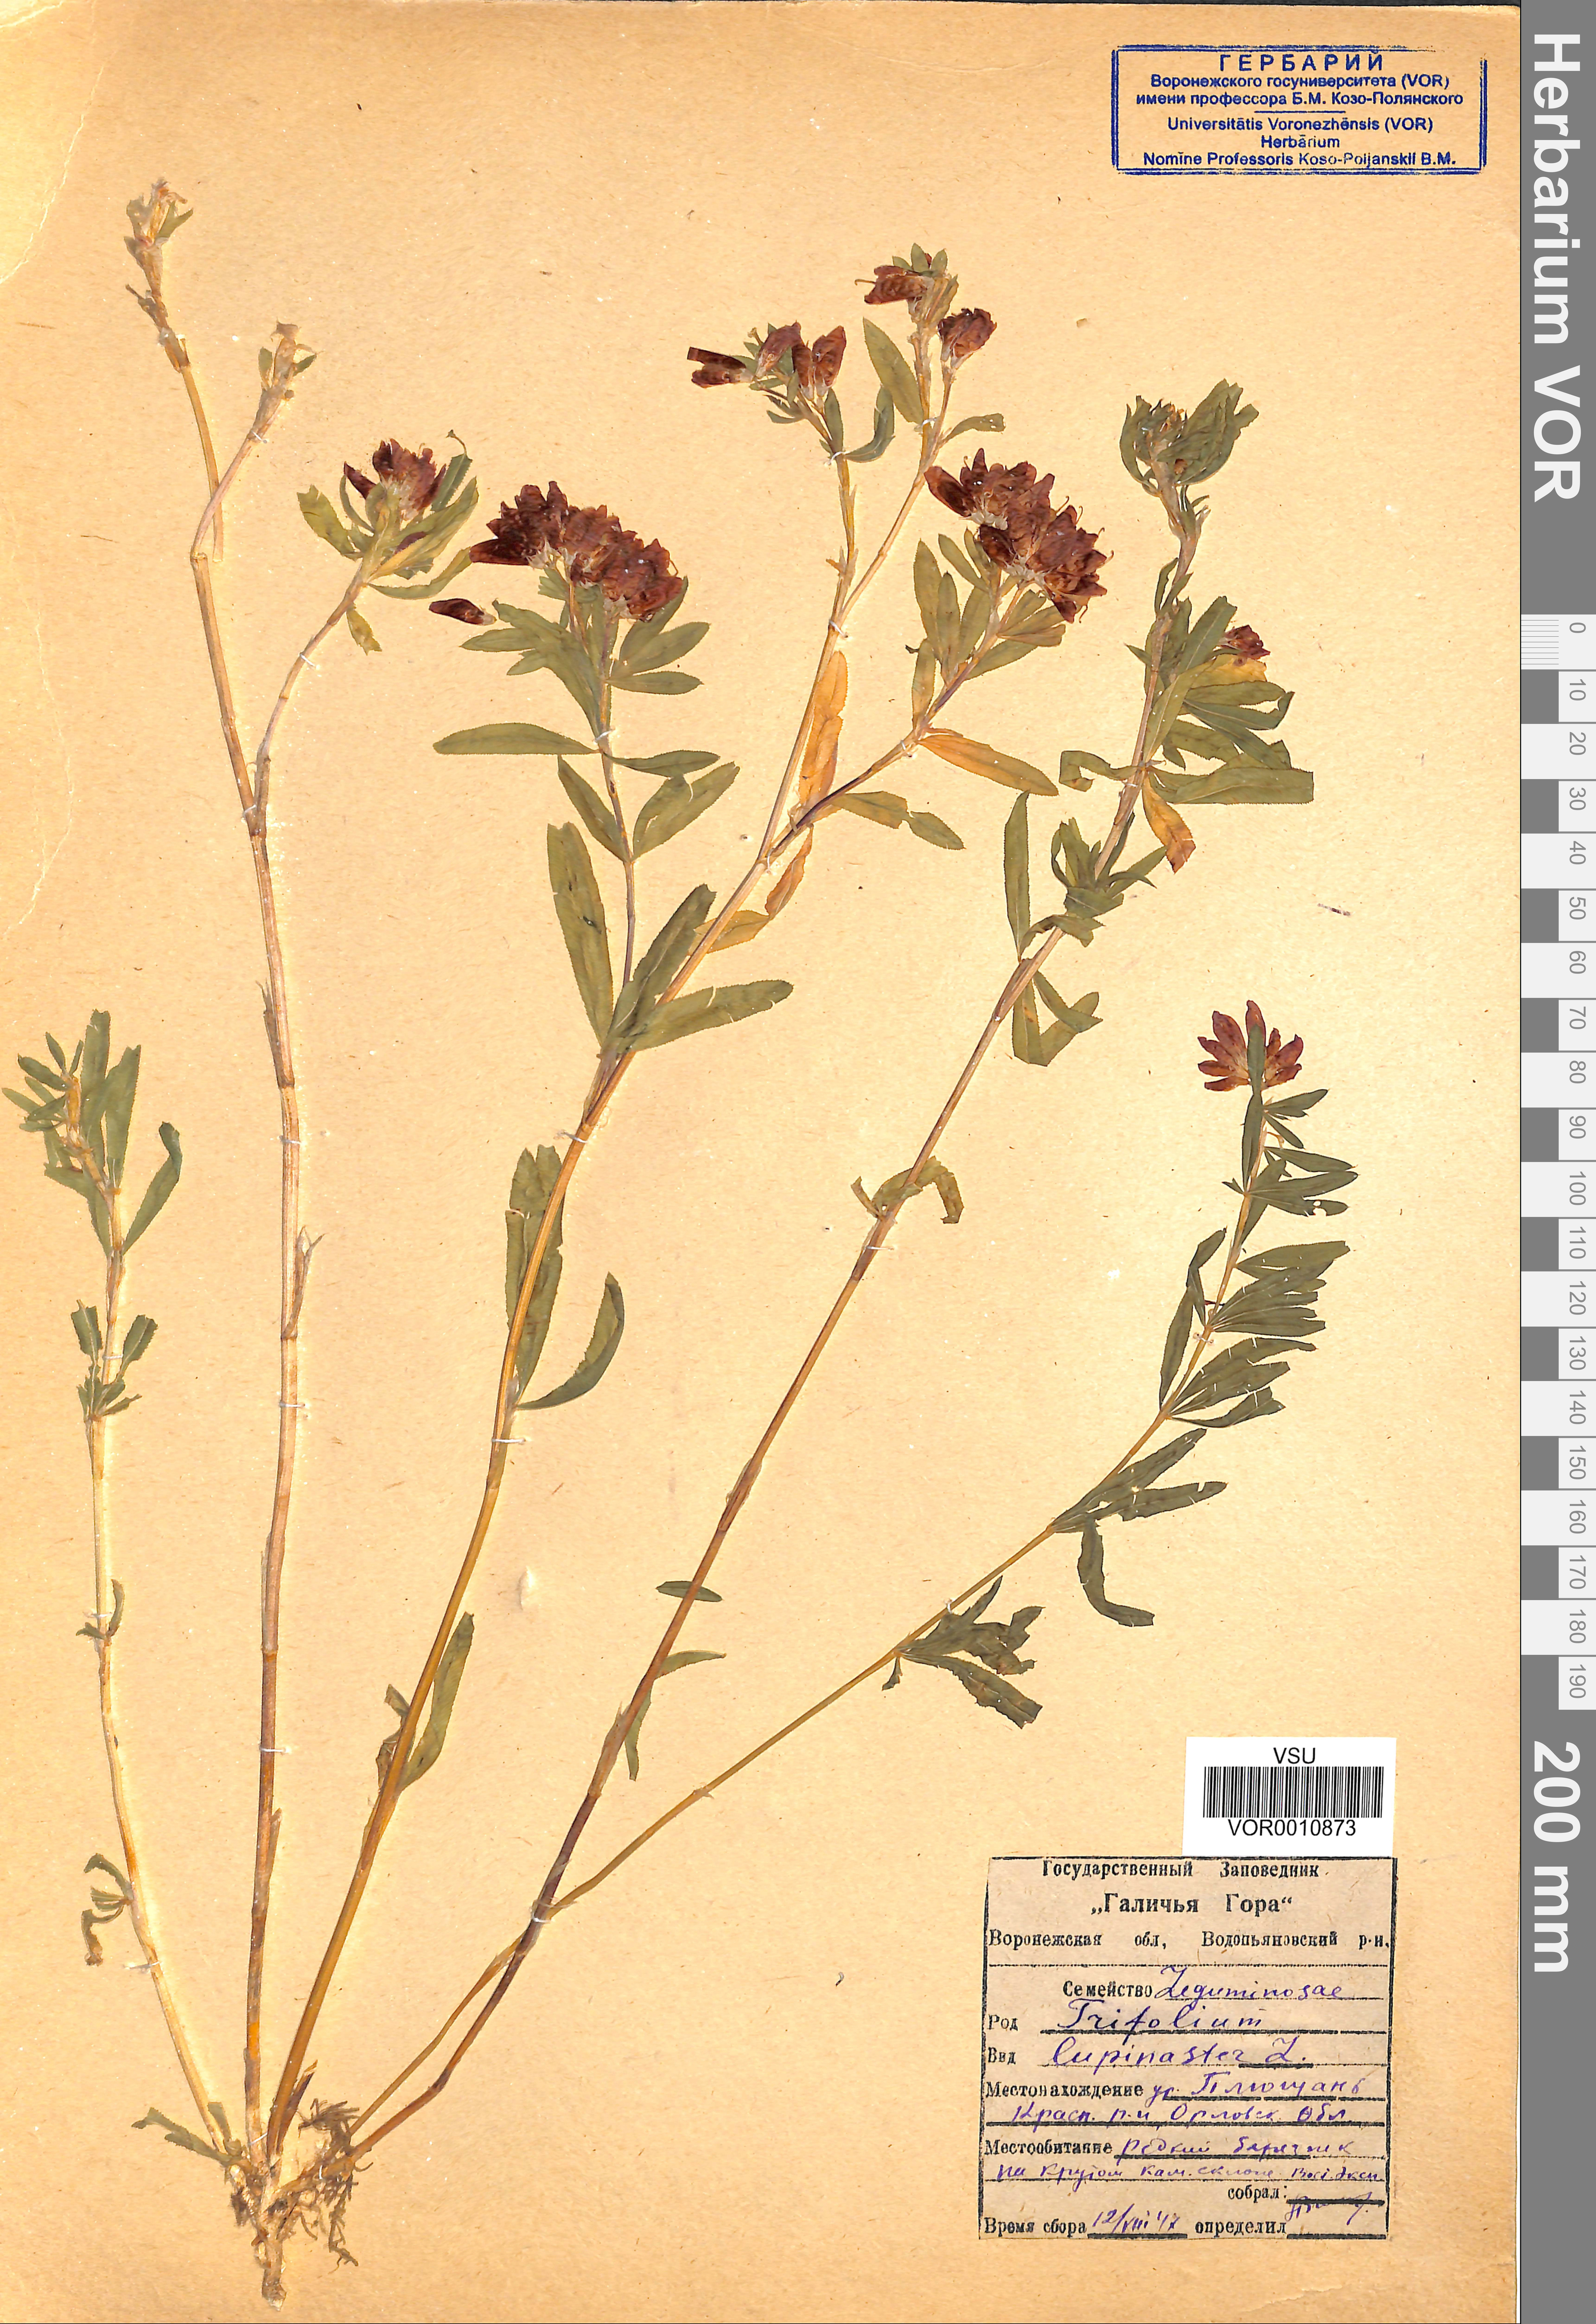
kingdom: Plantae
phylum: Tracheophyta
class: Magnoliopsida
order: Fabales
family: Fabaceae
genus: Trifolium
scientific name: Trifolium lupinaster
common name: Lupine clover
